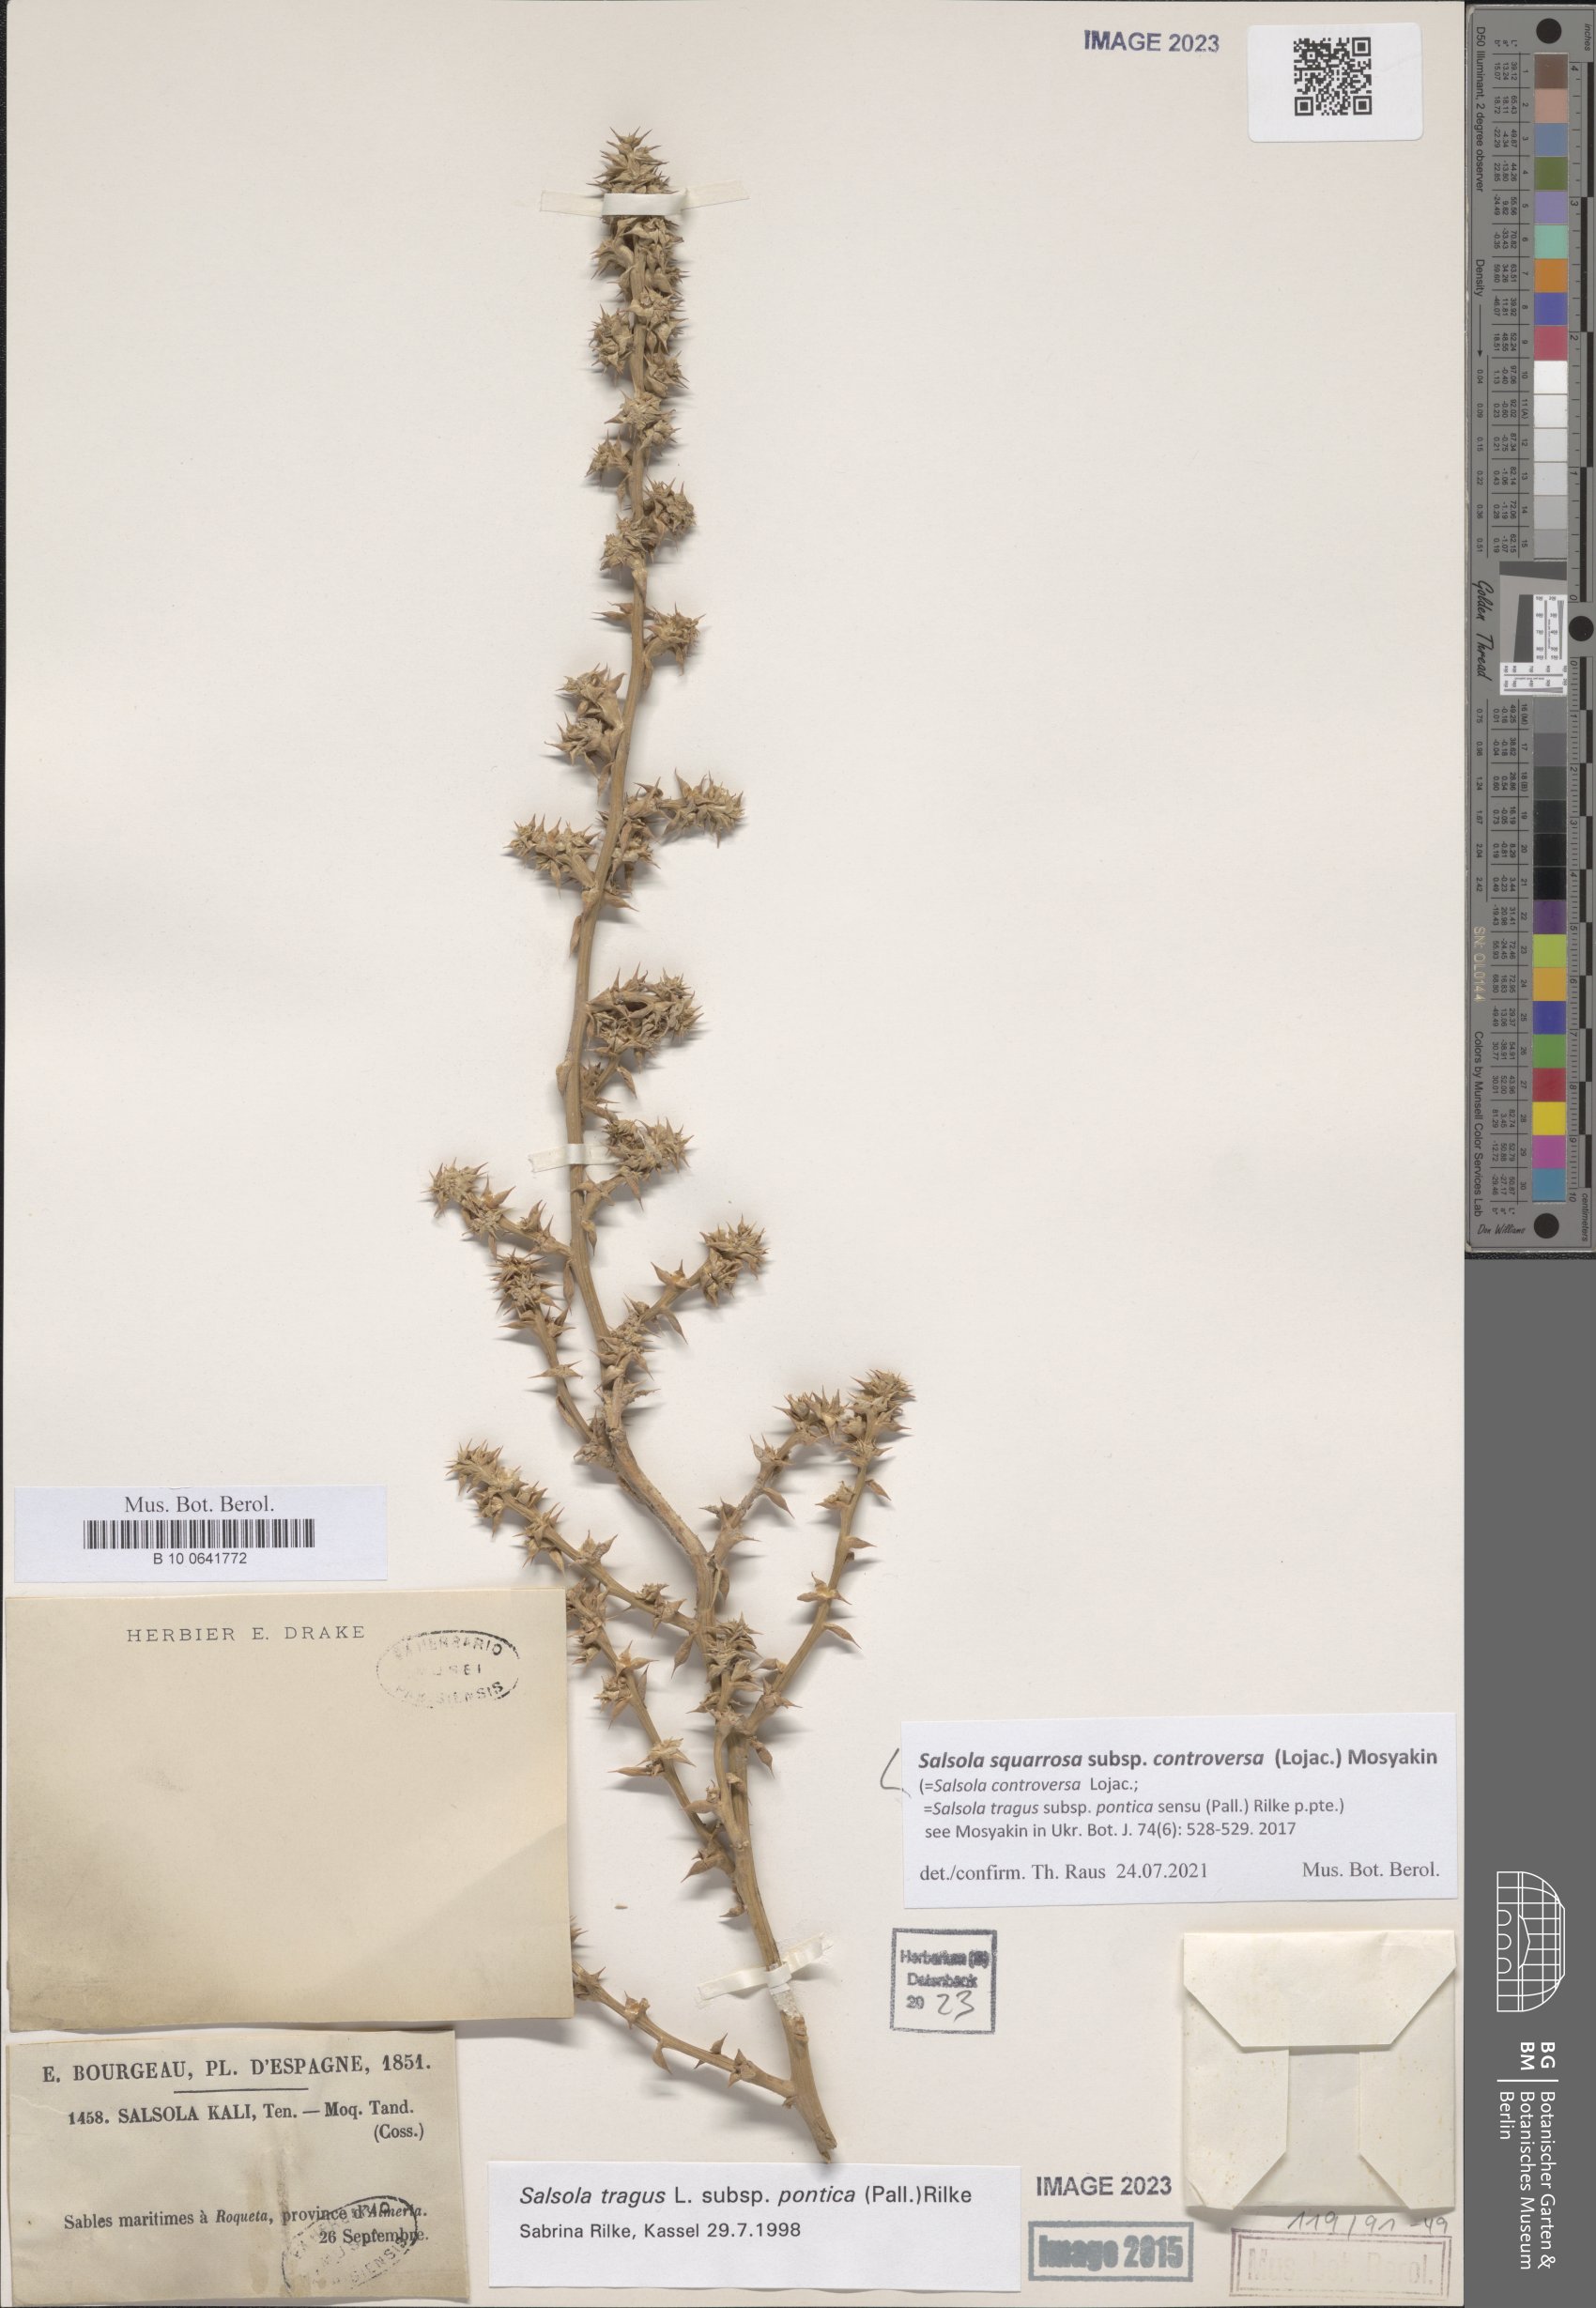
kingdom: Plantae
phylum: Tracheophyta
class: Magnoliopsida
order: Caryophyllales
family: Amaranthaceae
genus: Salsola
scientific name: Salsola squarrosa
